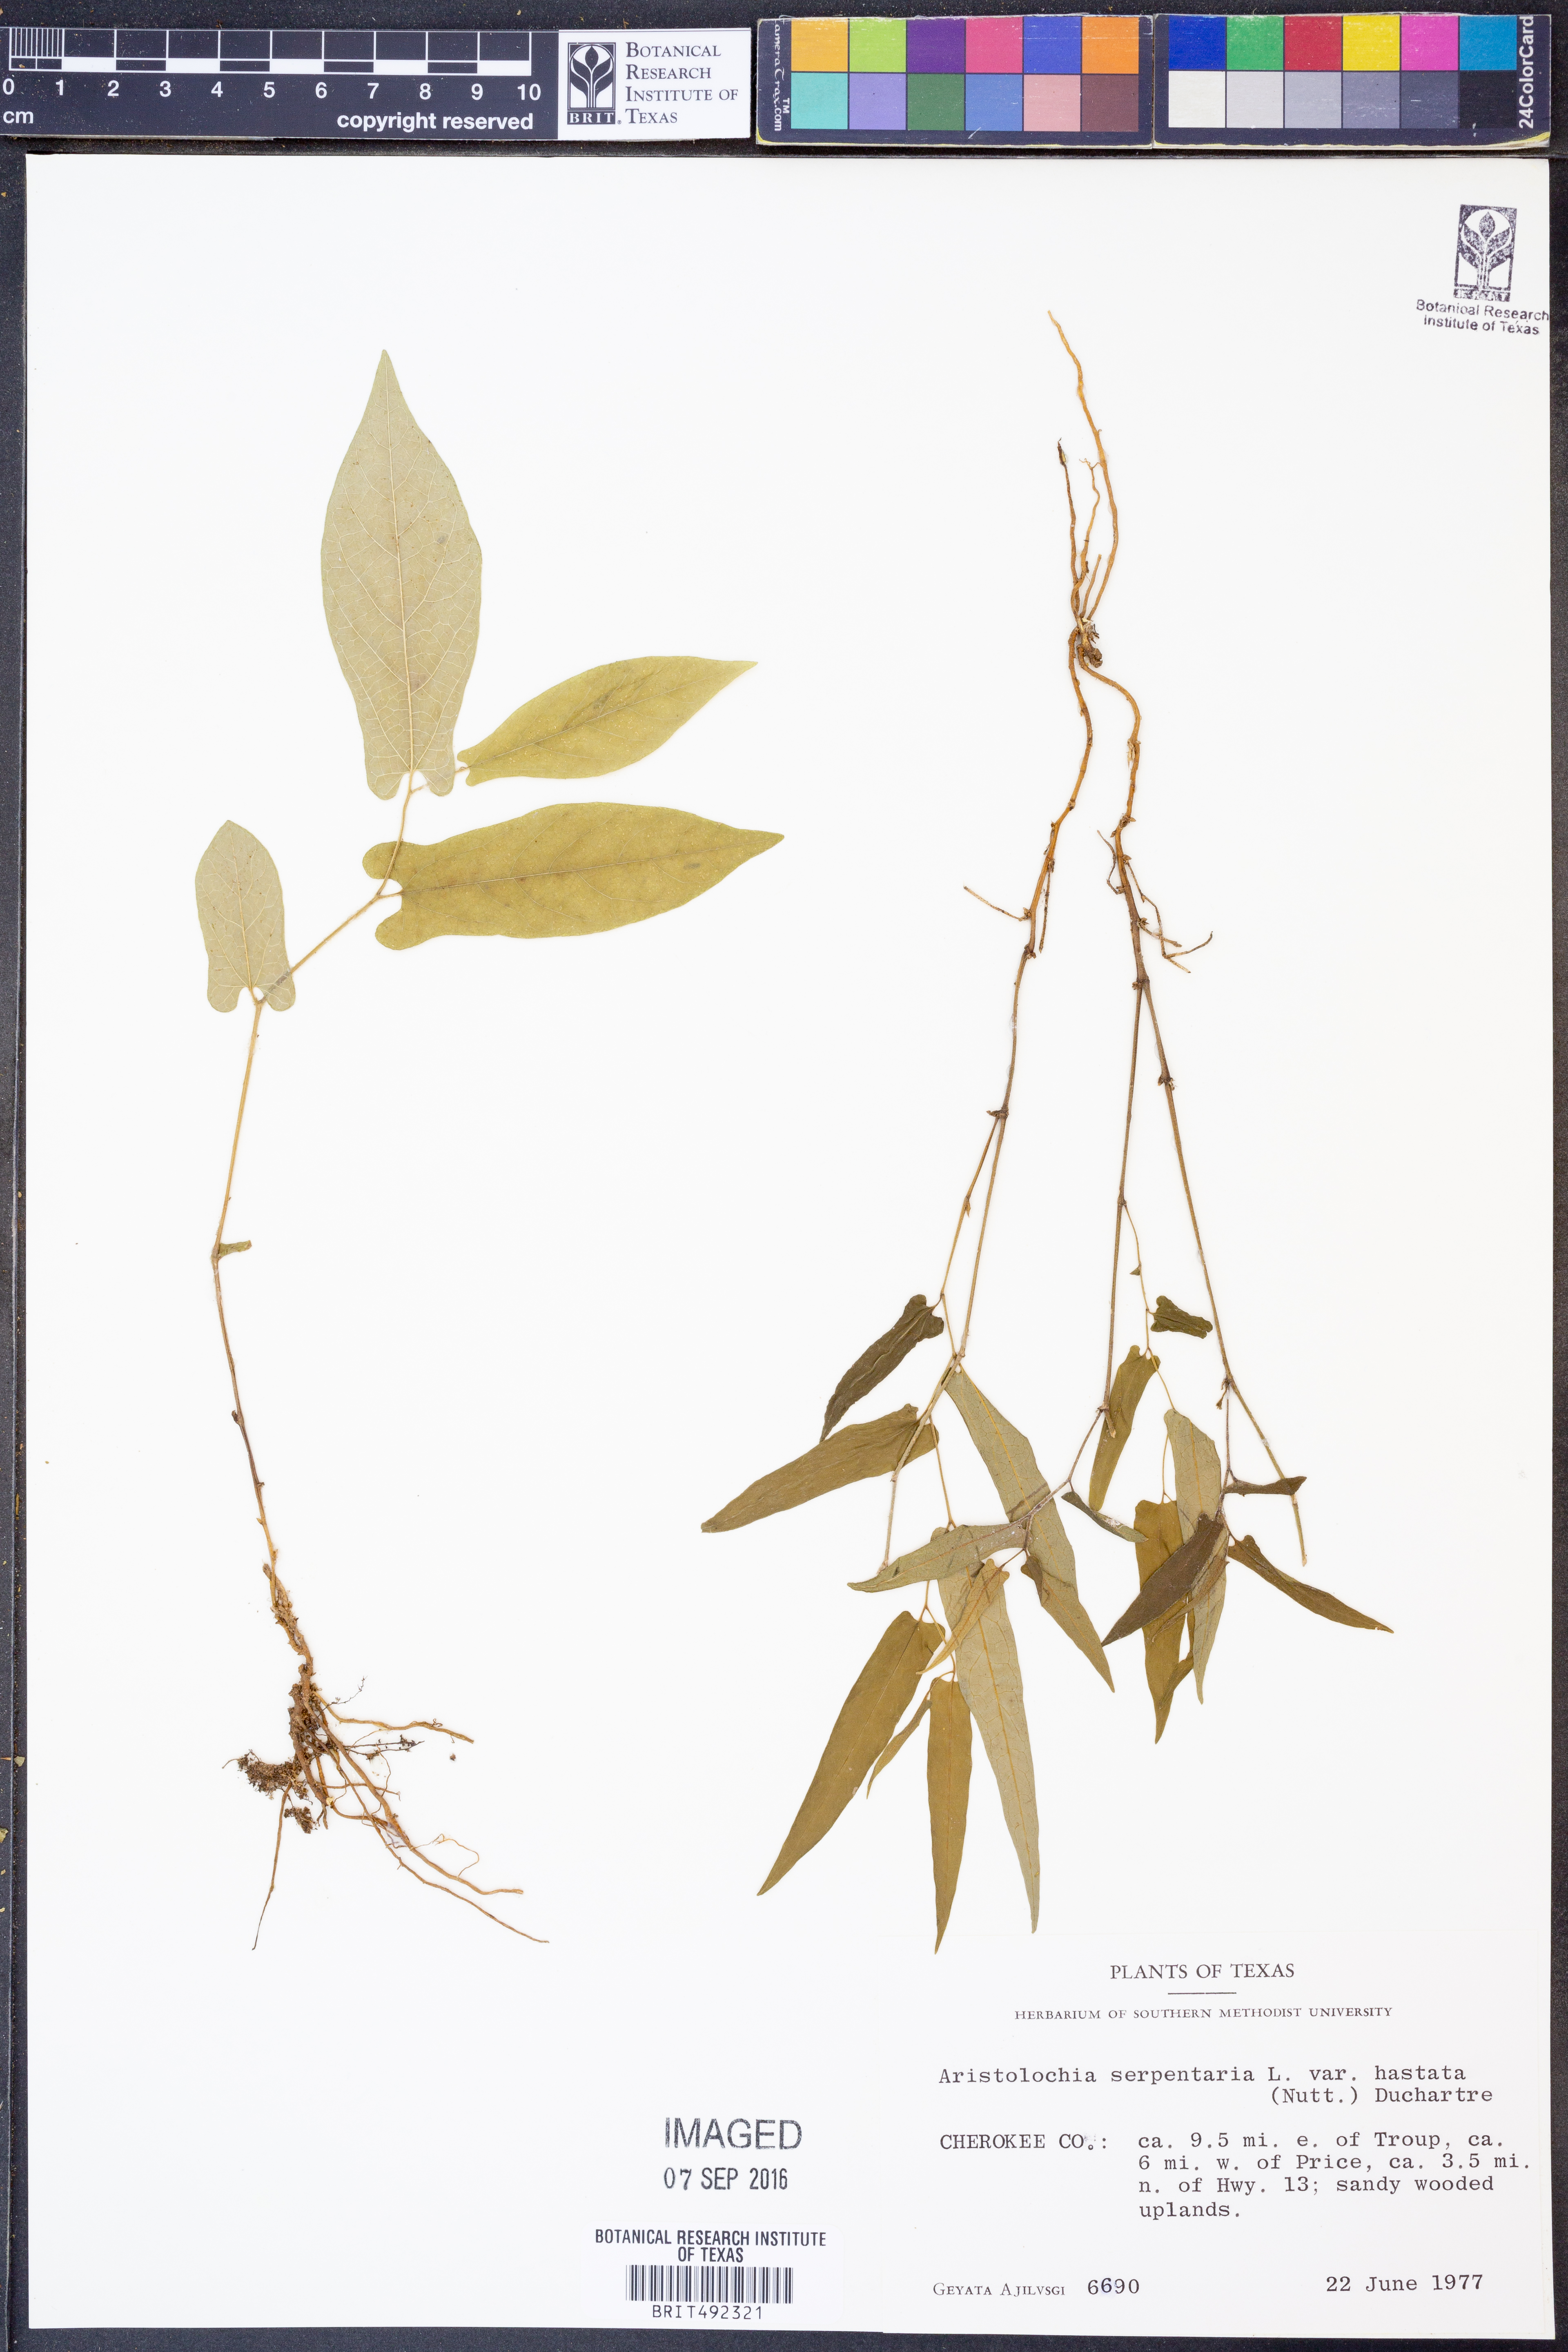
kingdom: Plantae
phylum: Tracheophyta
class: Magnoliopsida
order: Piperales
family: Aristolochiaceae
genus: Endodeca
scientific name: Endodeca serpentaria
